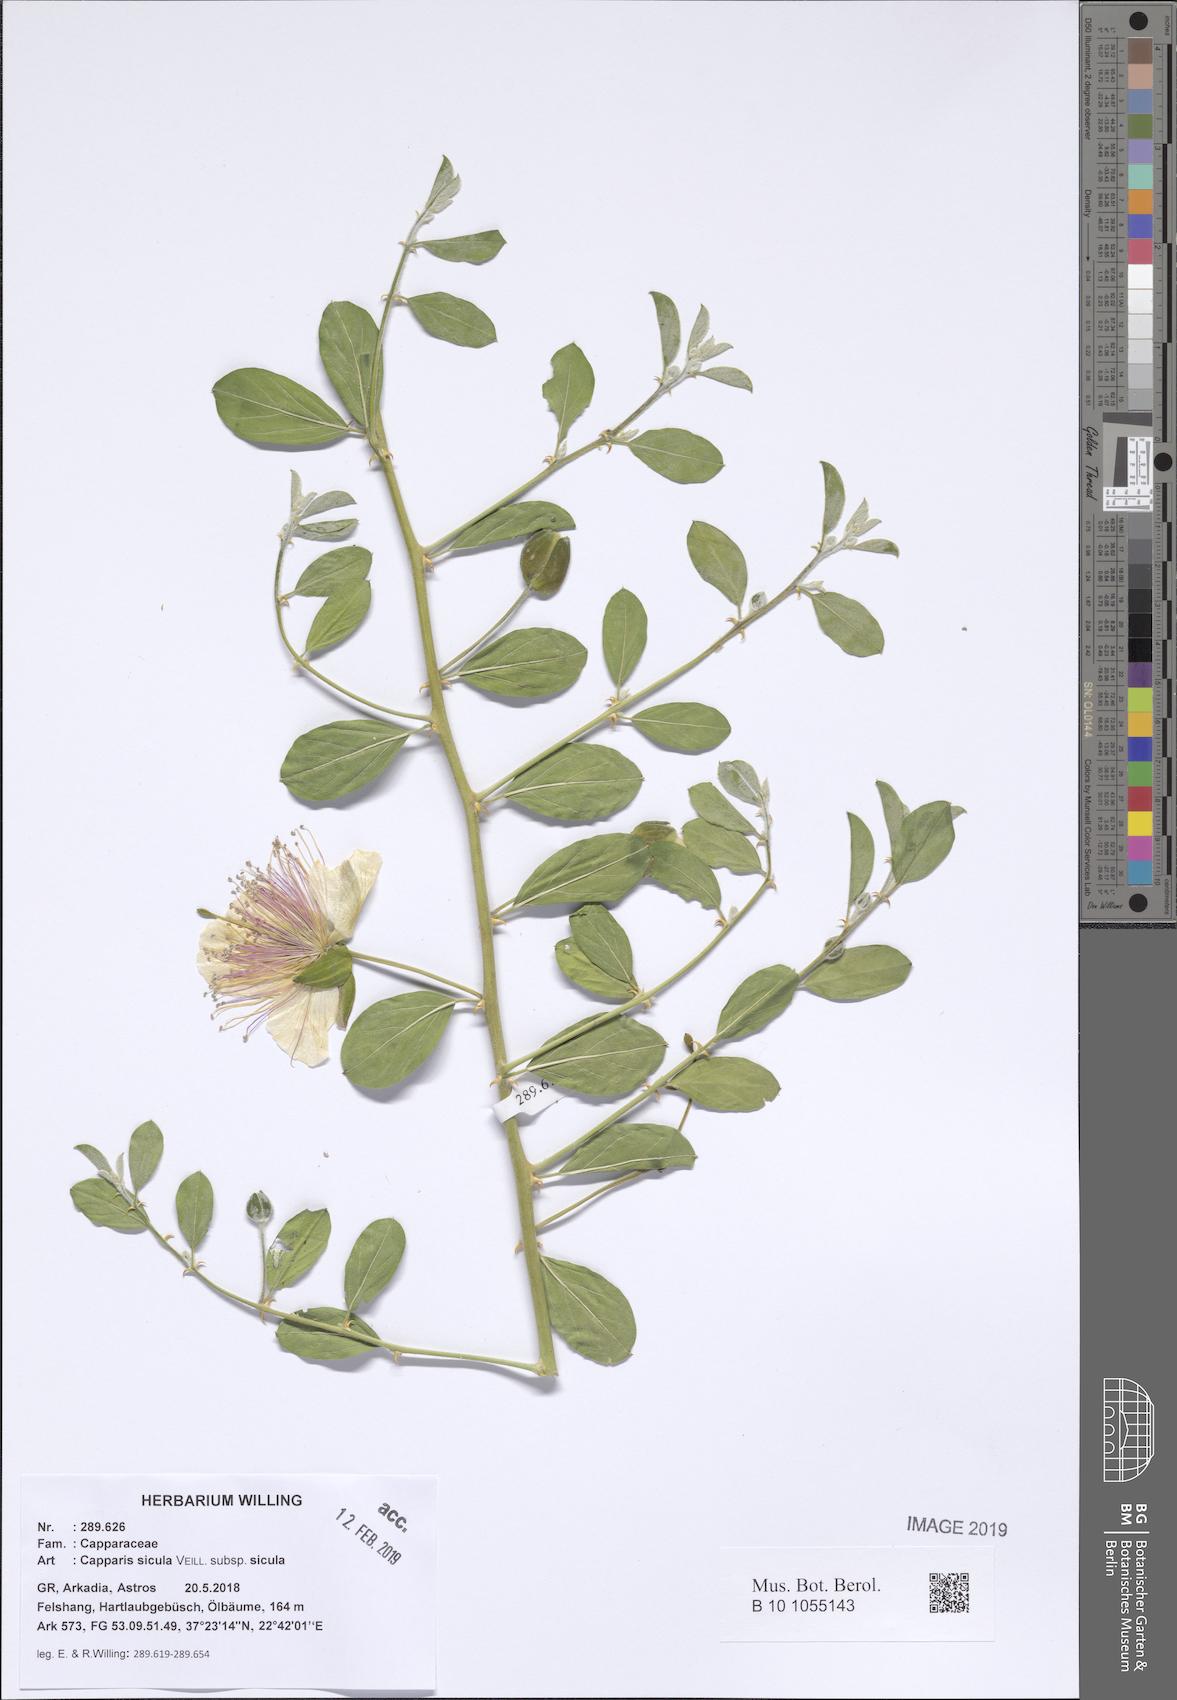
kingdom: Plantae
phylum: Tracheophyta
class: Magnoliopsida
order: Brassicales
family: Capparaceae
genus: Capparis
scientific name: Capparis spinosa
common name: Caper
